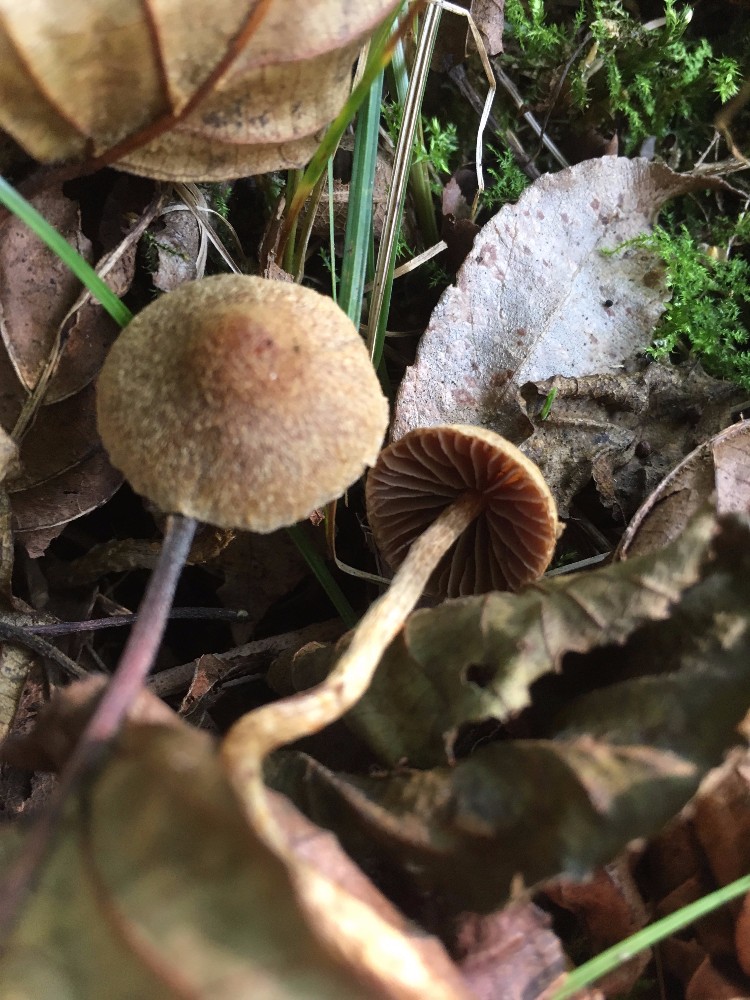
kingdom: Fungi
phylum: Basidiomycota
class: Agaricomycetes
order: Agaricales
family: Cortinariaceae
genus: Cortinarius
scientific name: Cortinarius helvelloides
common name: fjernbladet slørhat
